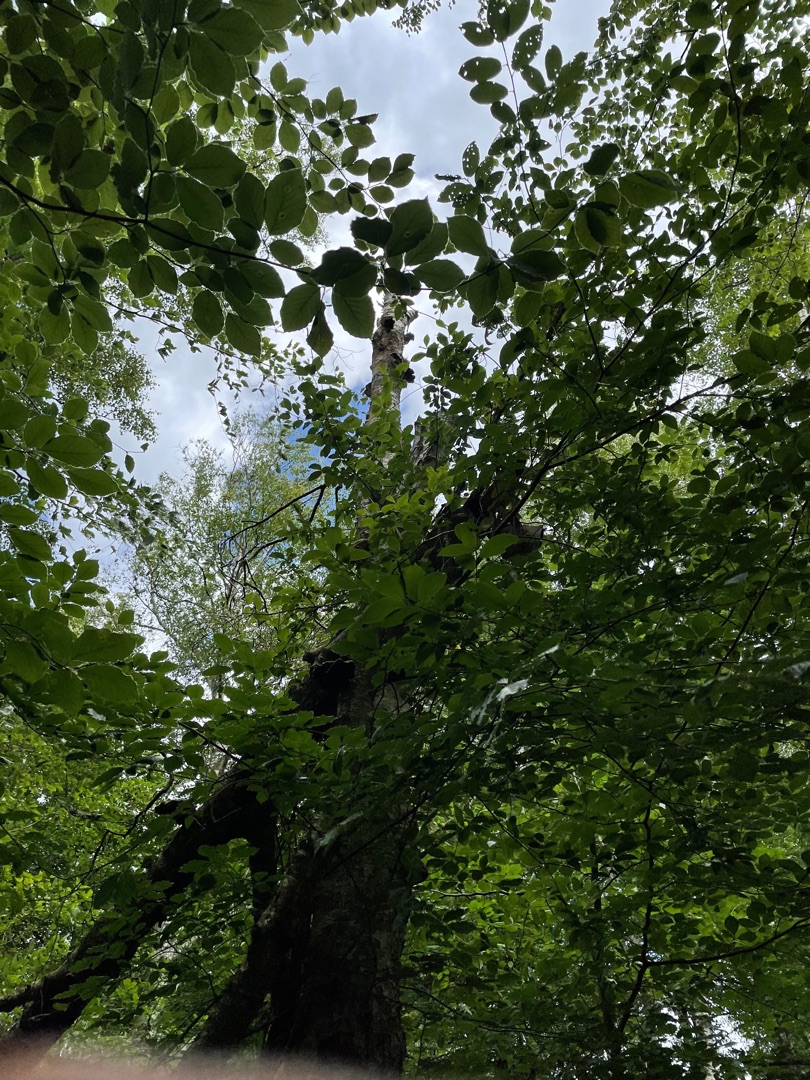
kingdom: Animalia
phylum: Chordata
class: Aves
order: Piciformes
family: Picidae
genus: Dendrocopos
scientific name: Dendrocopos major
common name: Stor flagspætte
